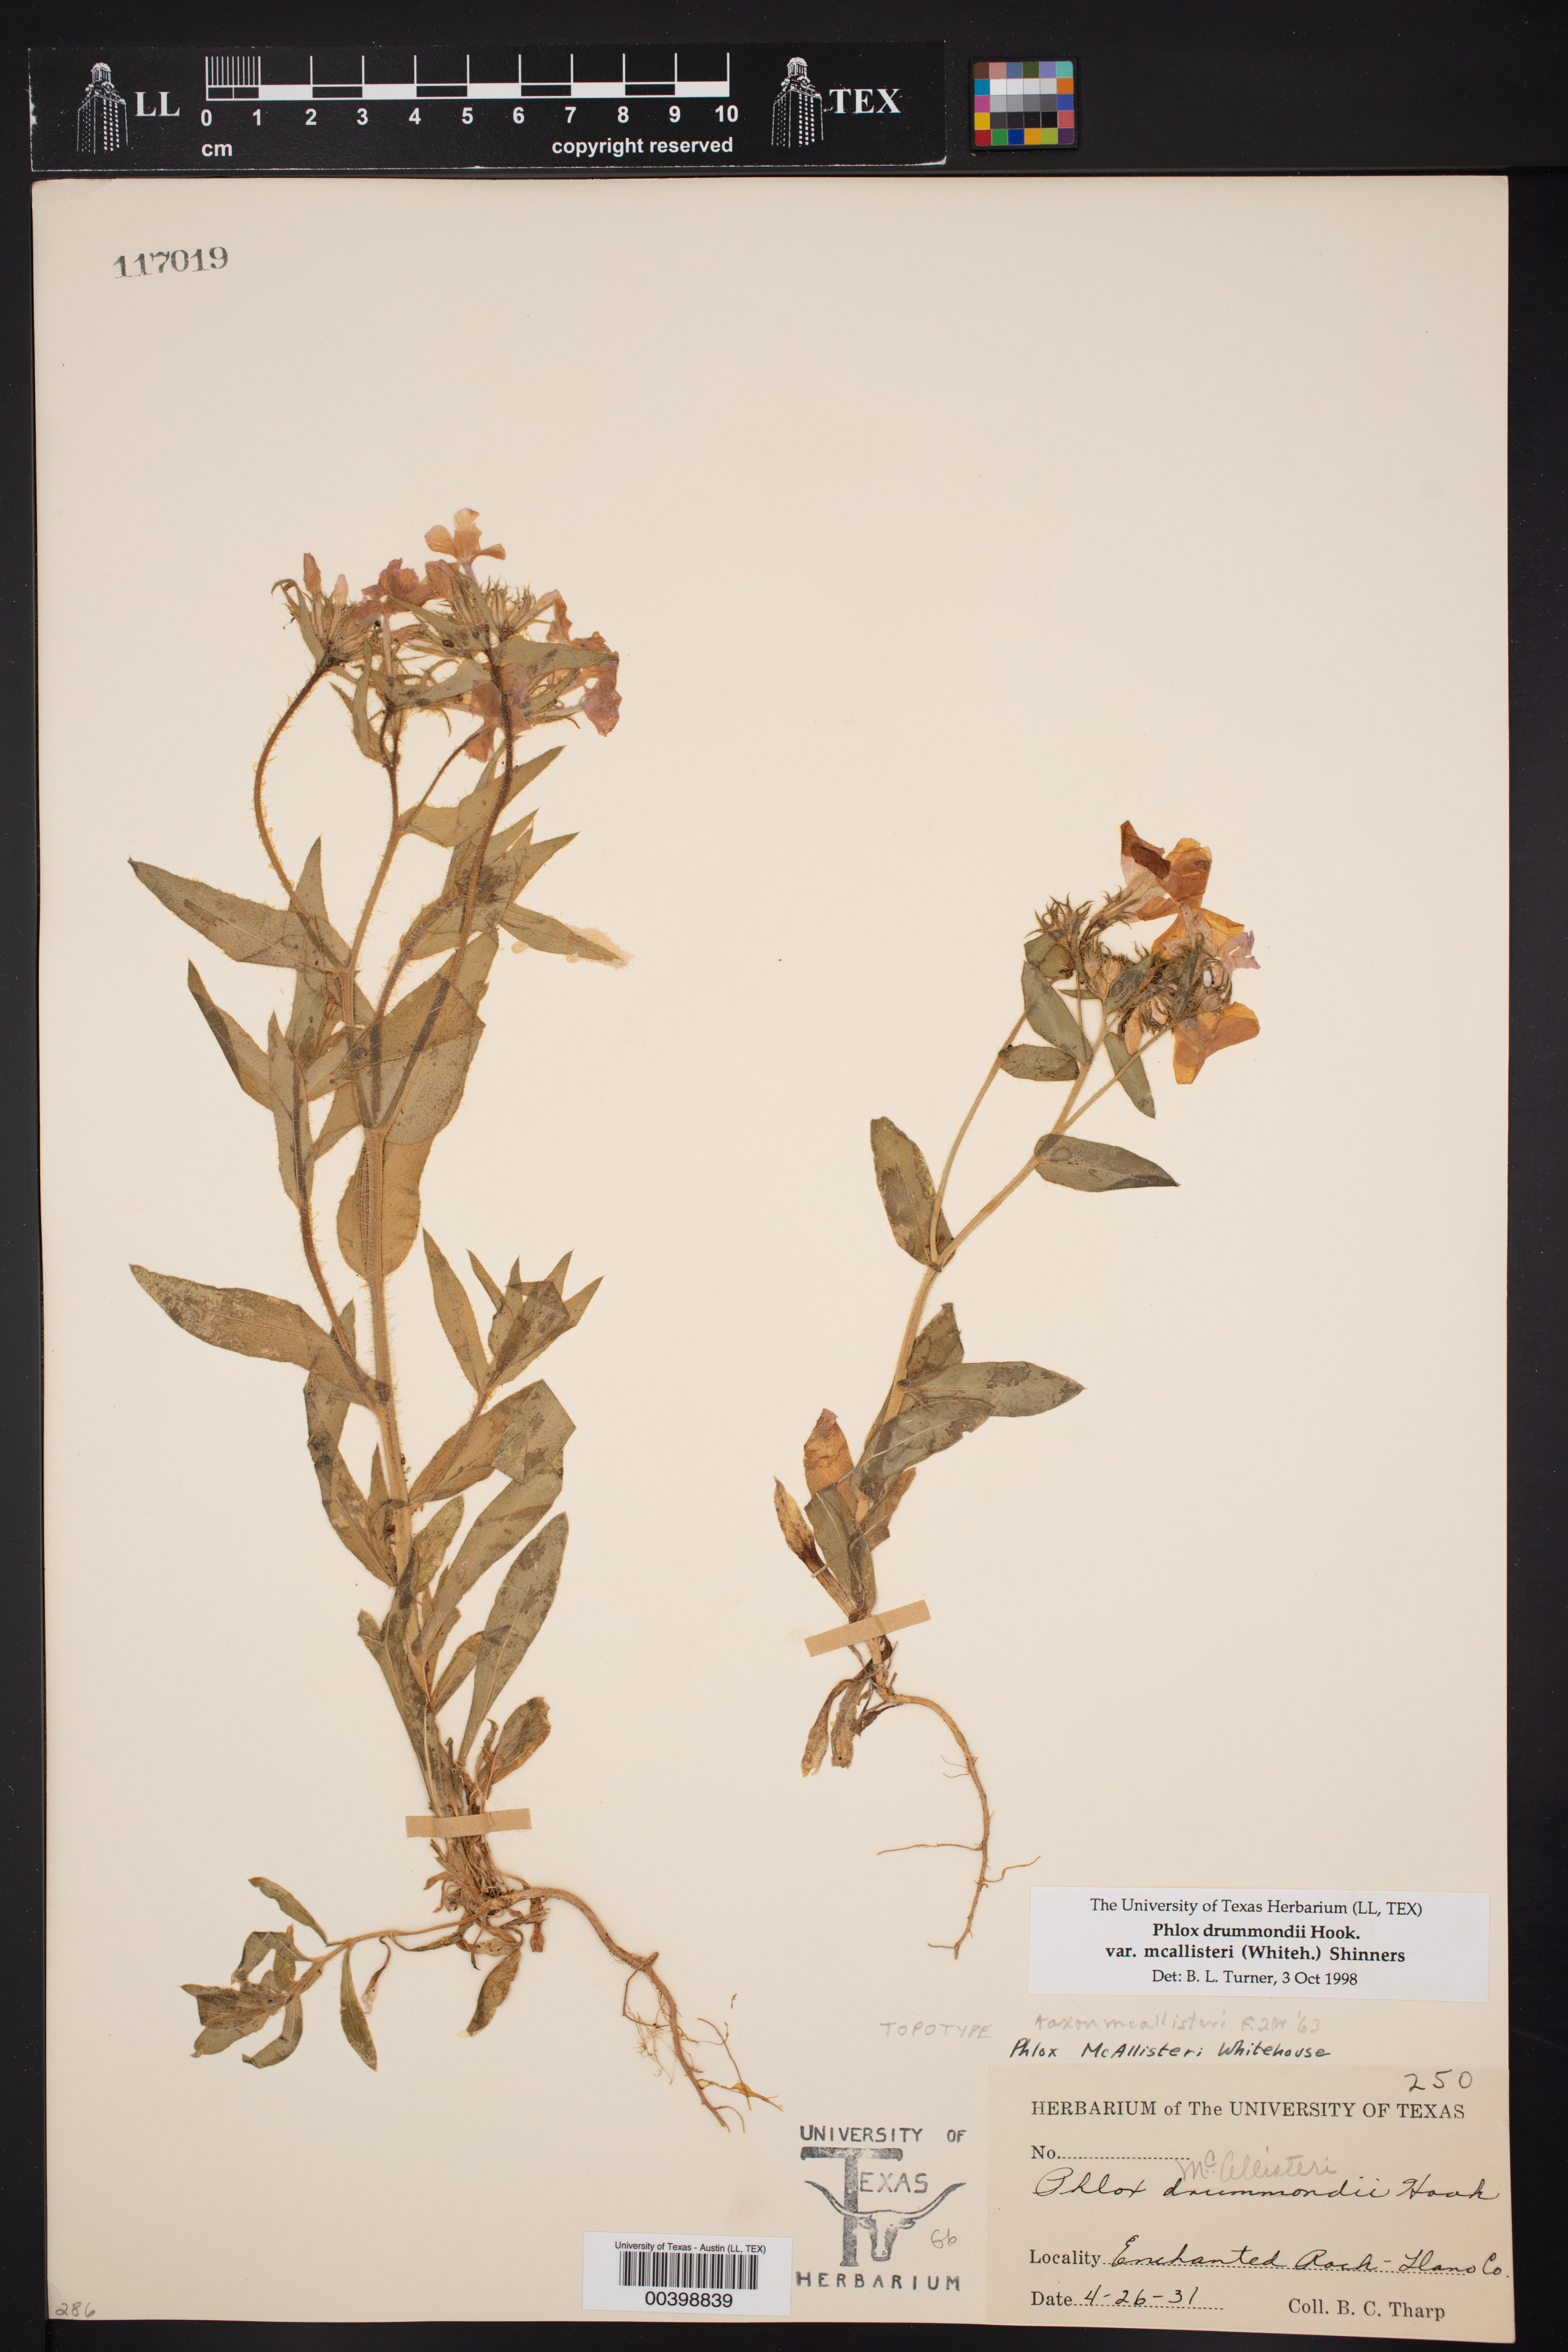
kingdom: Plantae
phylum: Tracheophyta
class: Magnoliopsida
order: Ericales
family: Polemoniaceae
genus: Phlox
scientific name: Phlox drummondii
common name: Drummond's phlox
